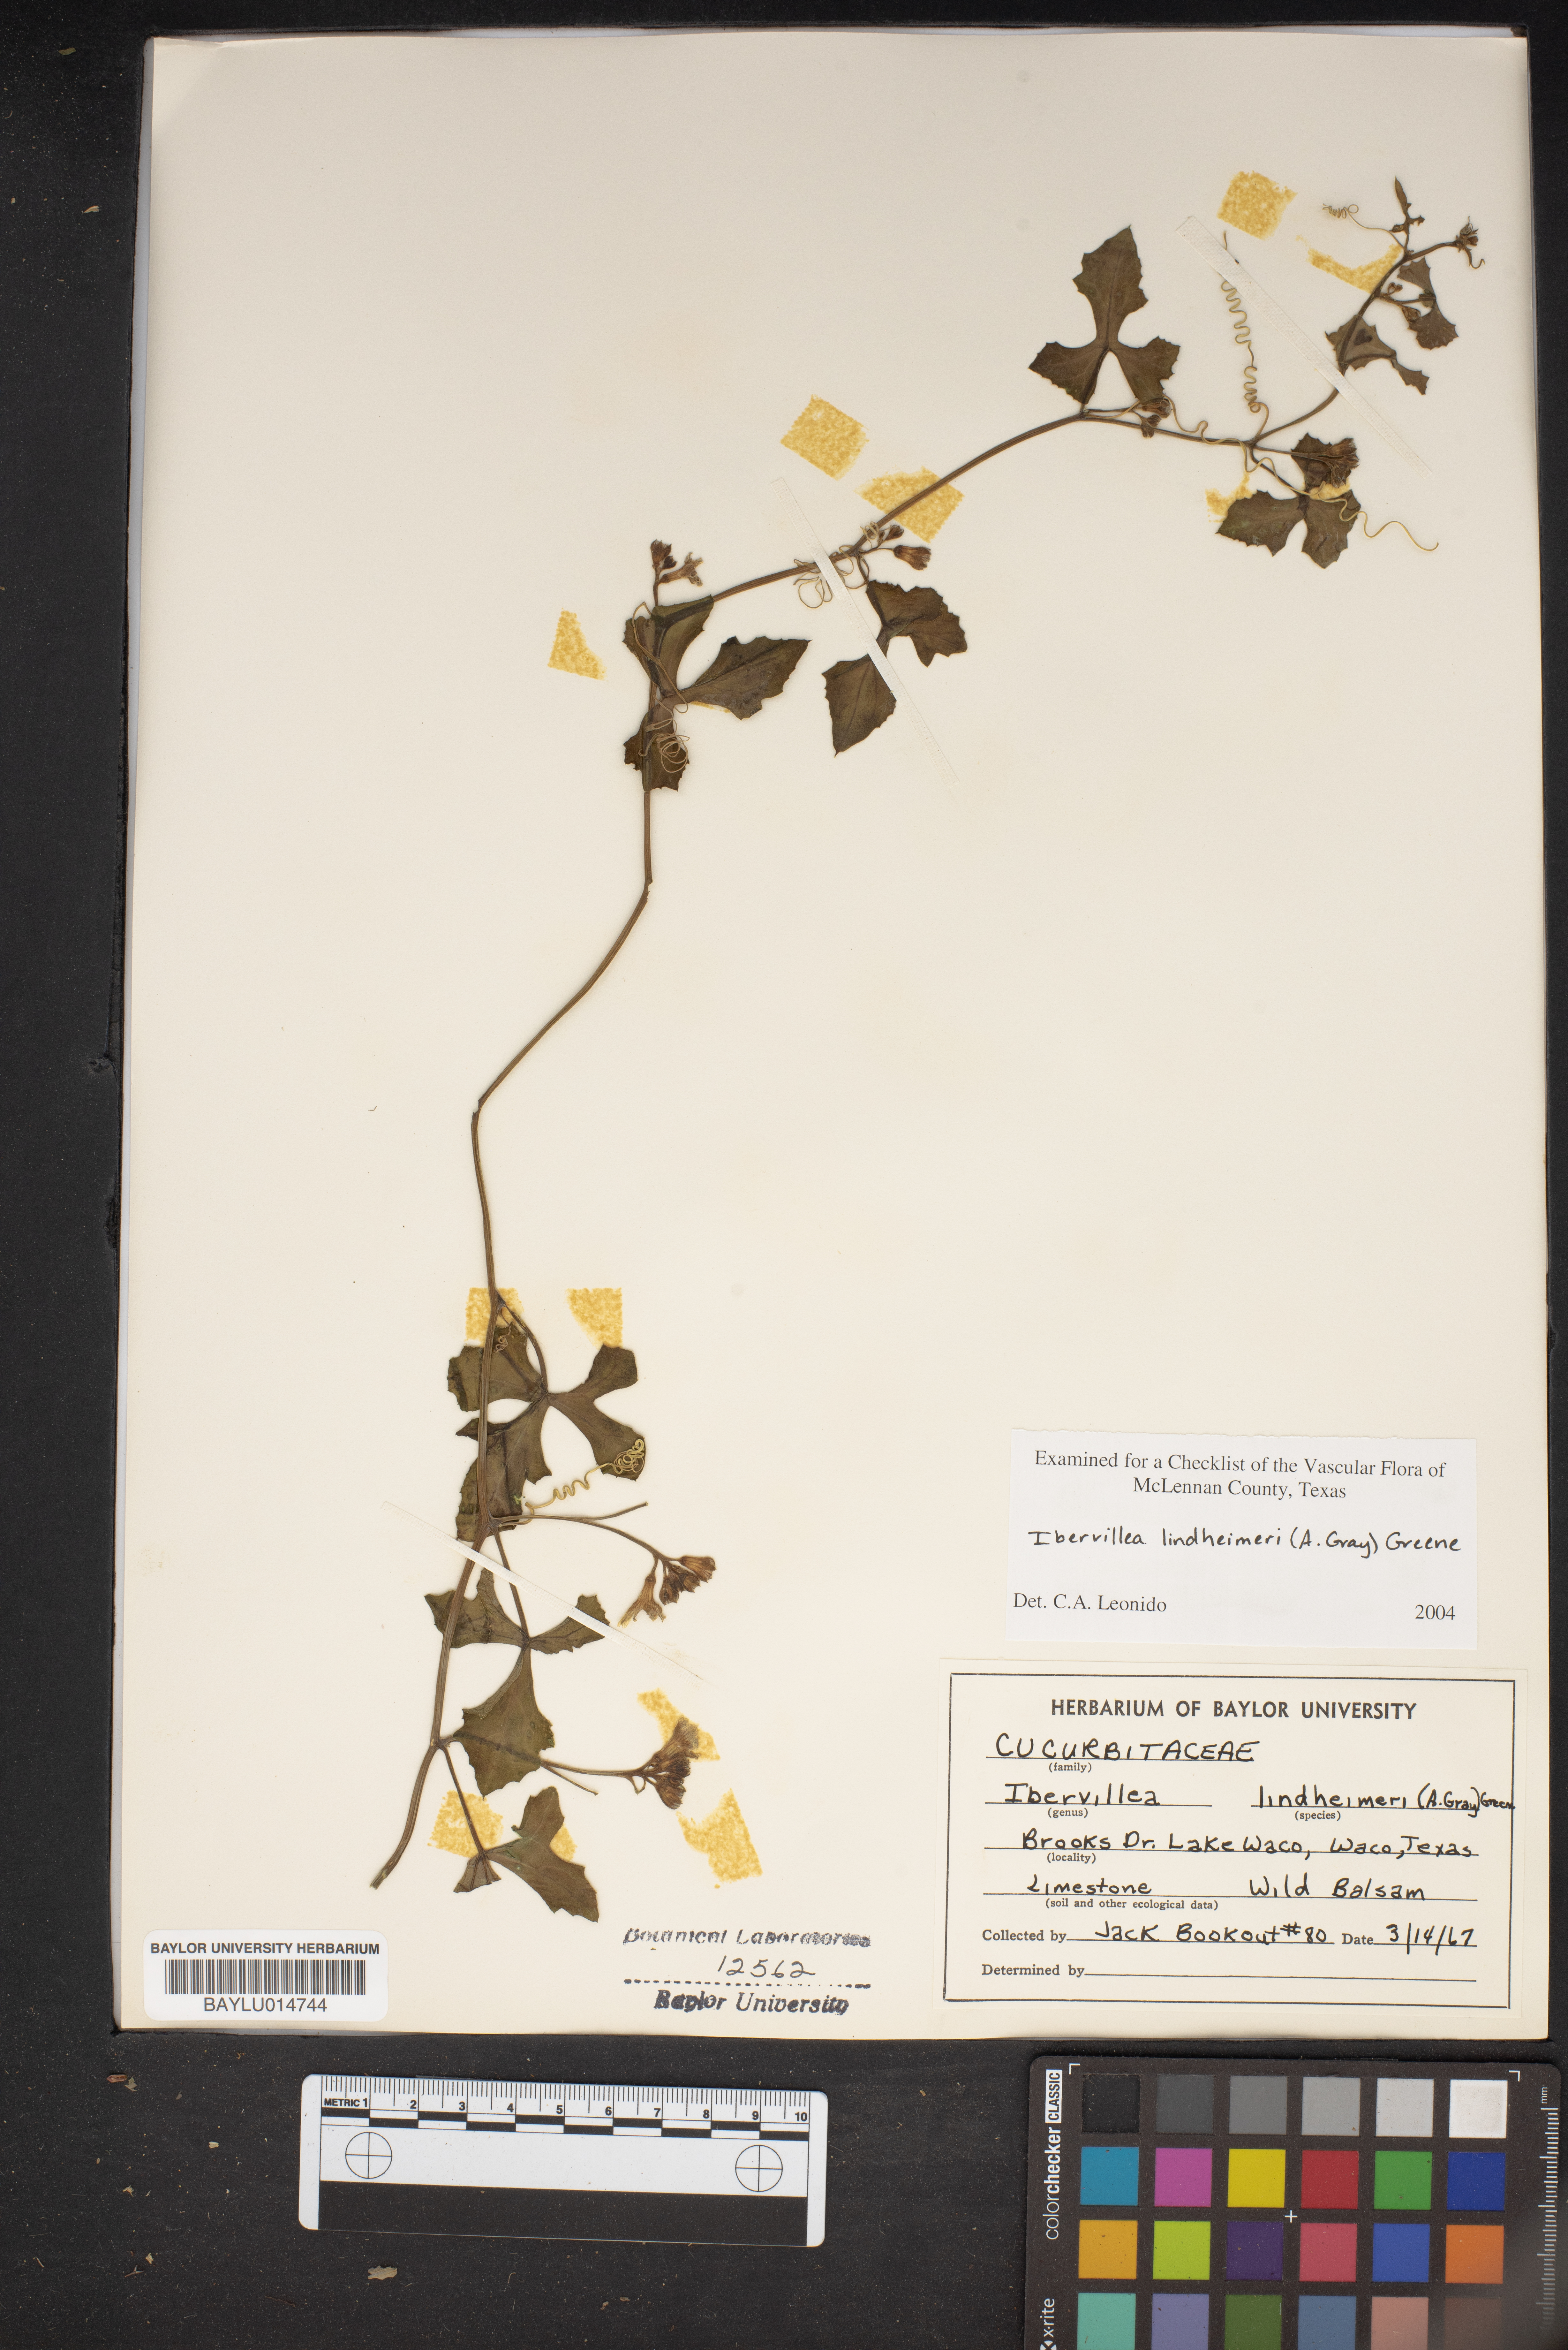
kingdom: Plantae
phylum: Tracheophyta
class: Magnoliopsida
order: Cucurbitales
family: Cucurbitaceae
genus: Ibervillea
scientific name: Ibervillea lindheimeri
